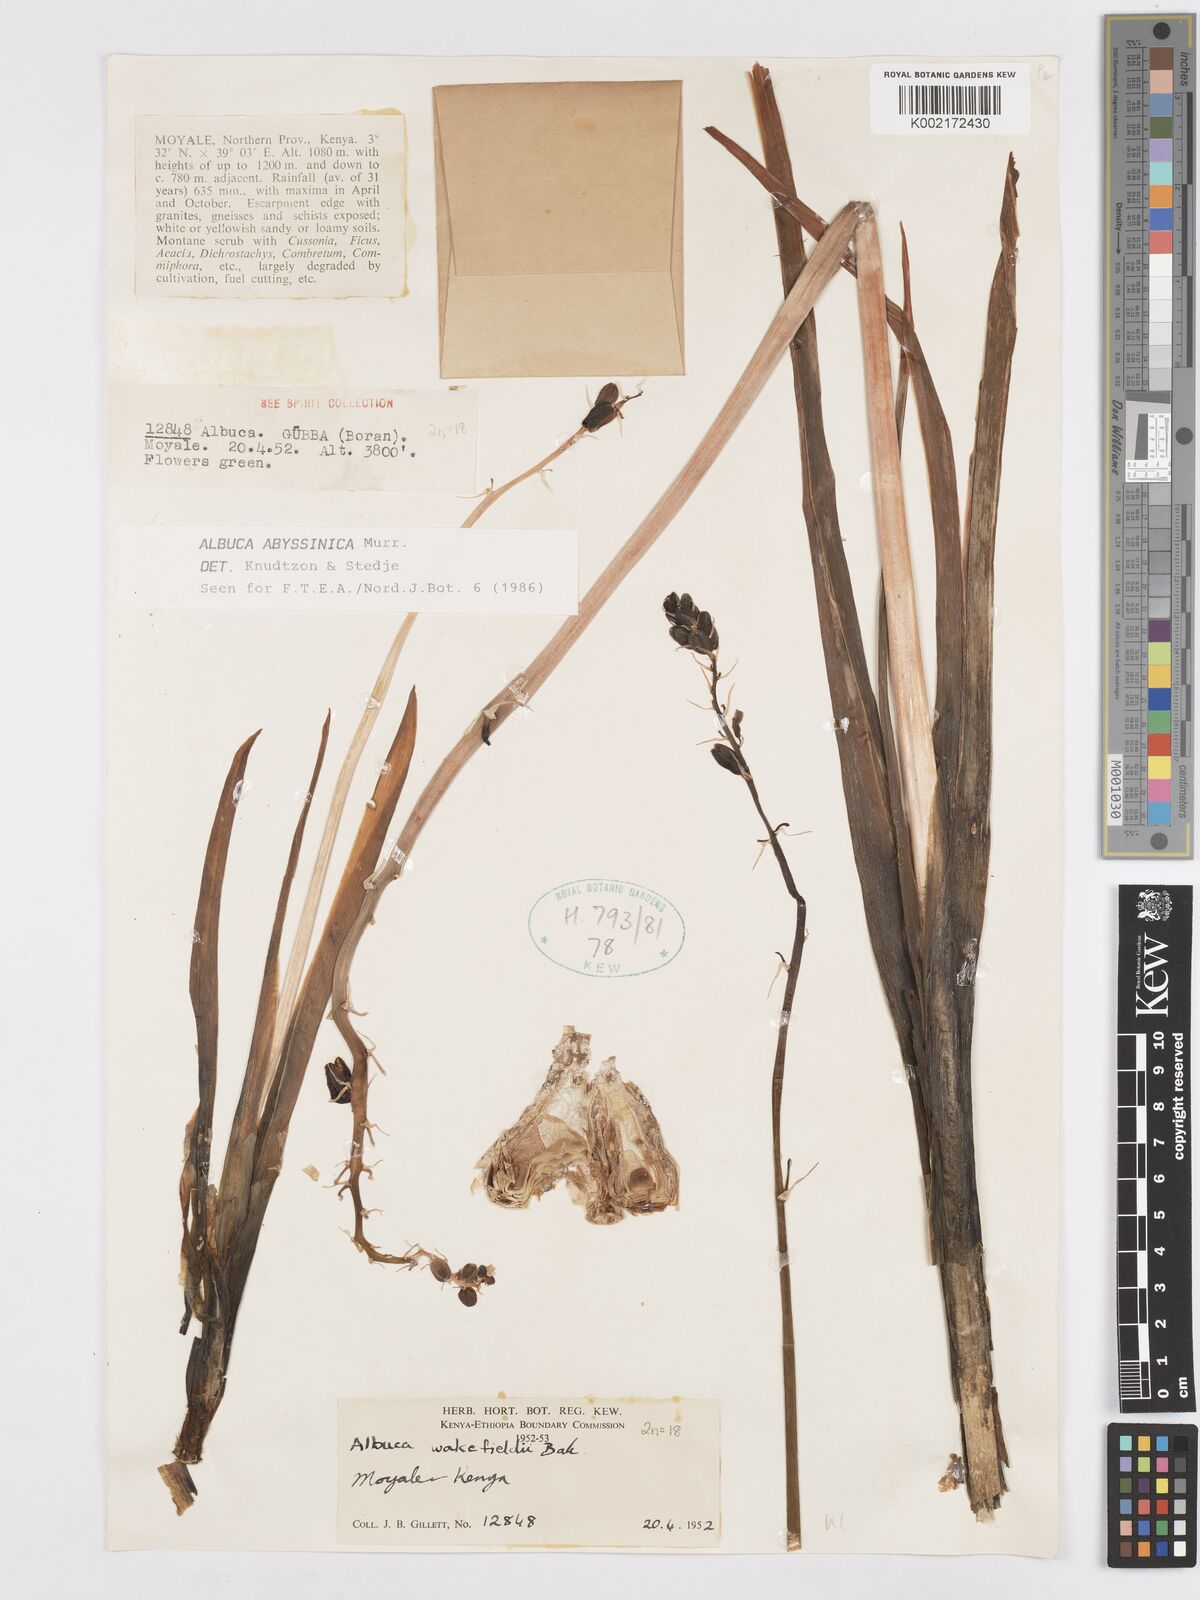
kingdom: Plantae
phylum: Tracheophyta
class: Liliopsida
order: Asparagales
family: Asparagaceae
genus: Albuca
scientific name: Albuca abyssinica
